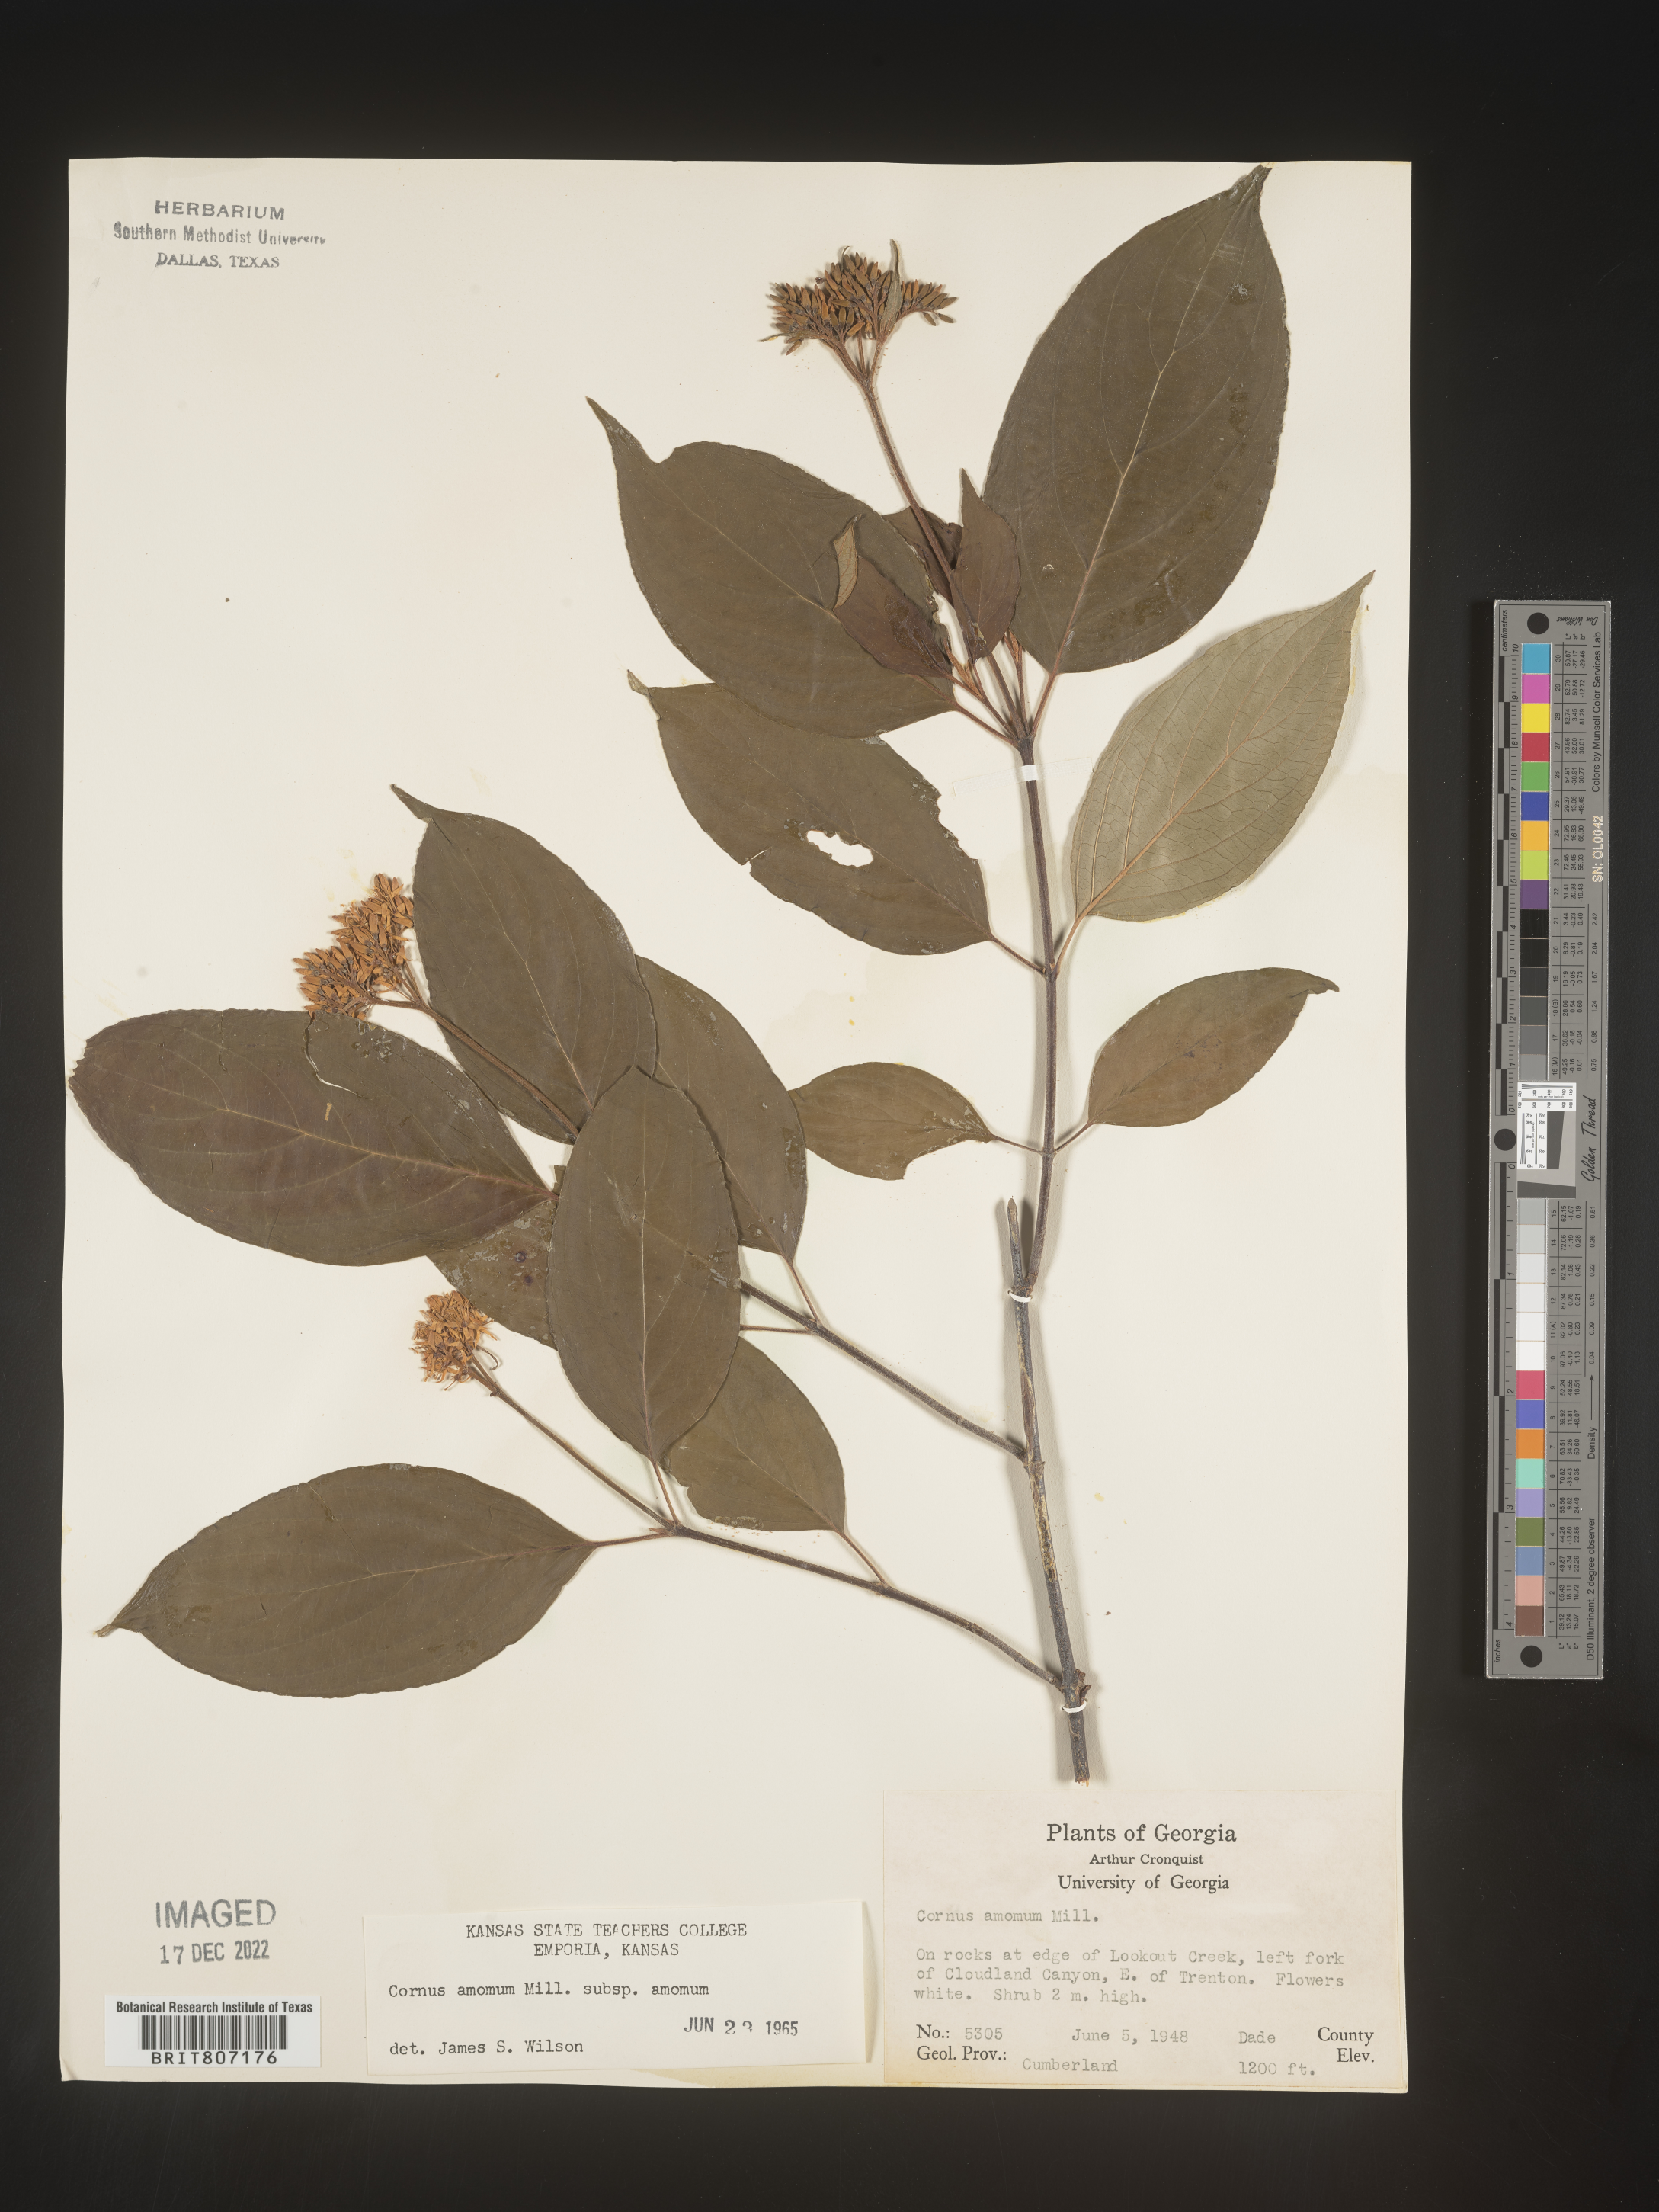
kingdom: Plantae
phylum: Tracheophyta
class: Magnoliopsida
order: Cornales
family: Cornaceae
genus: Cornus
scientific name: Cornus amomum
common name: Silky dogwood
